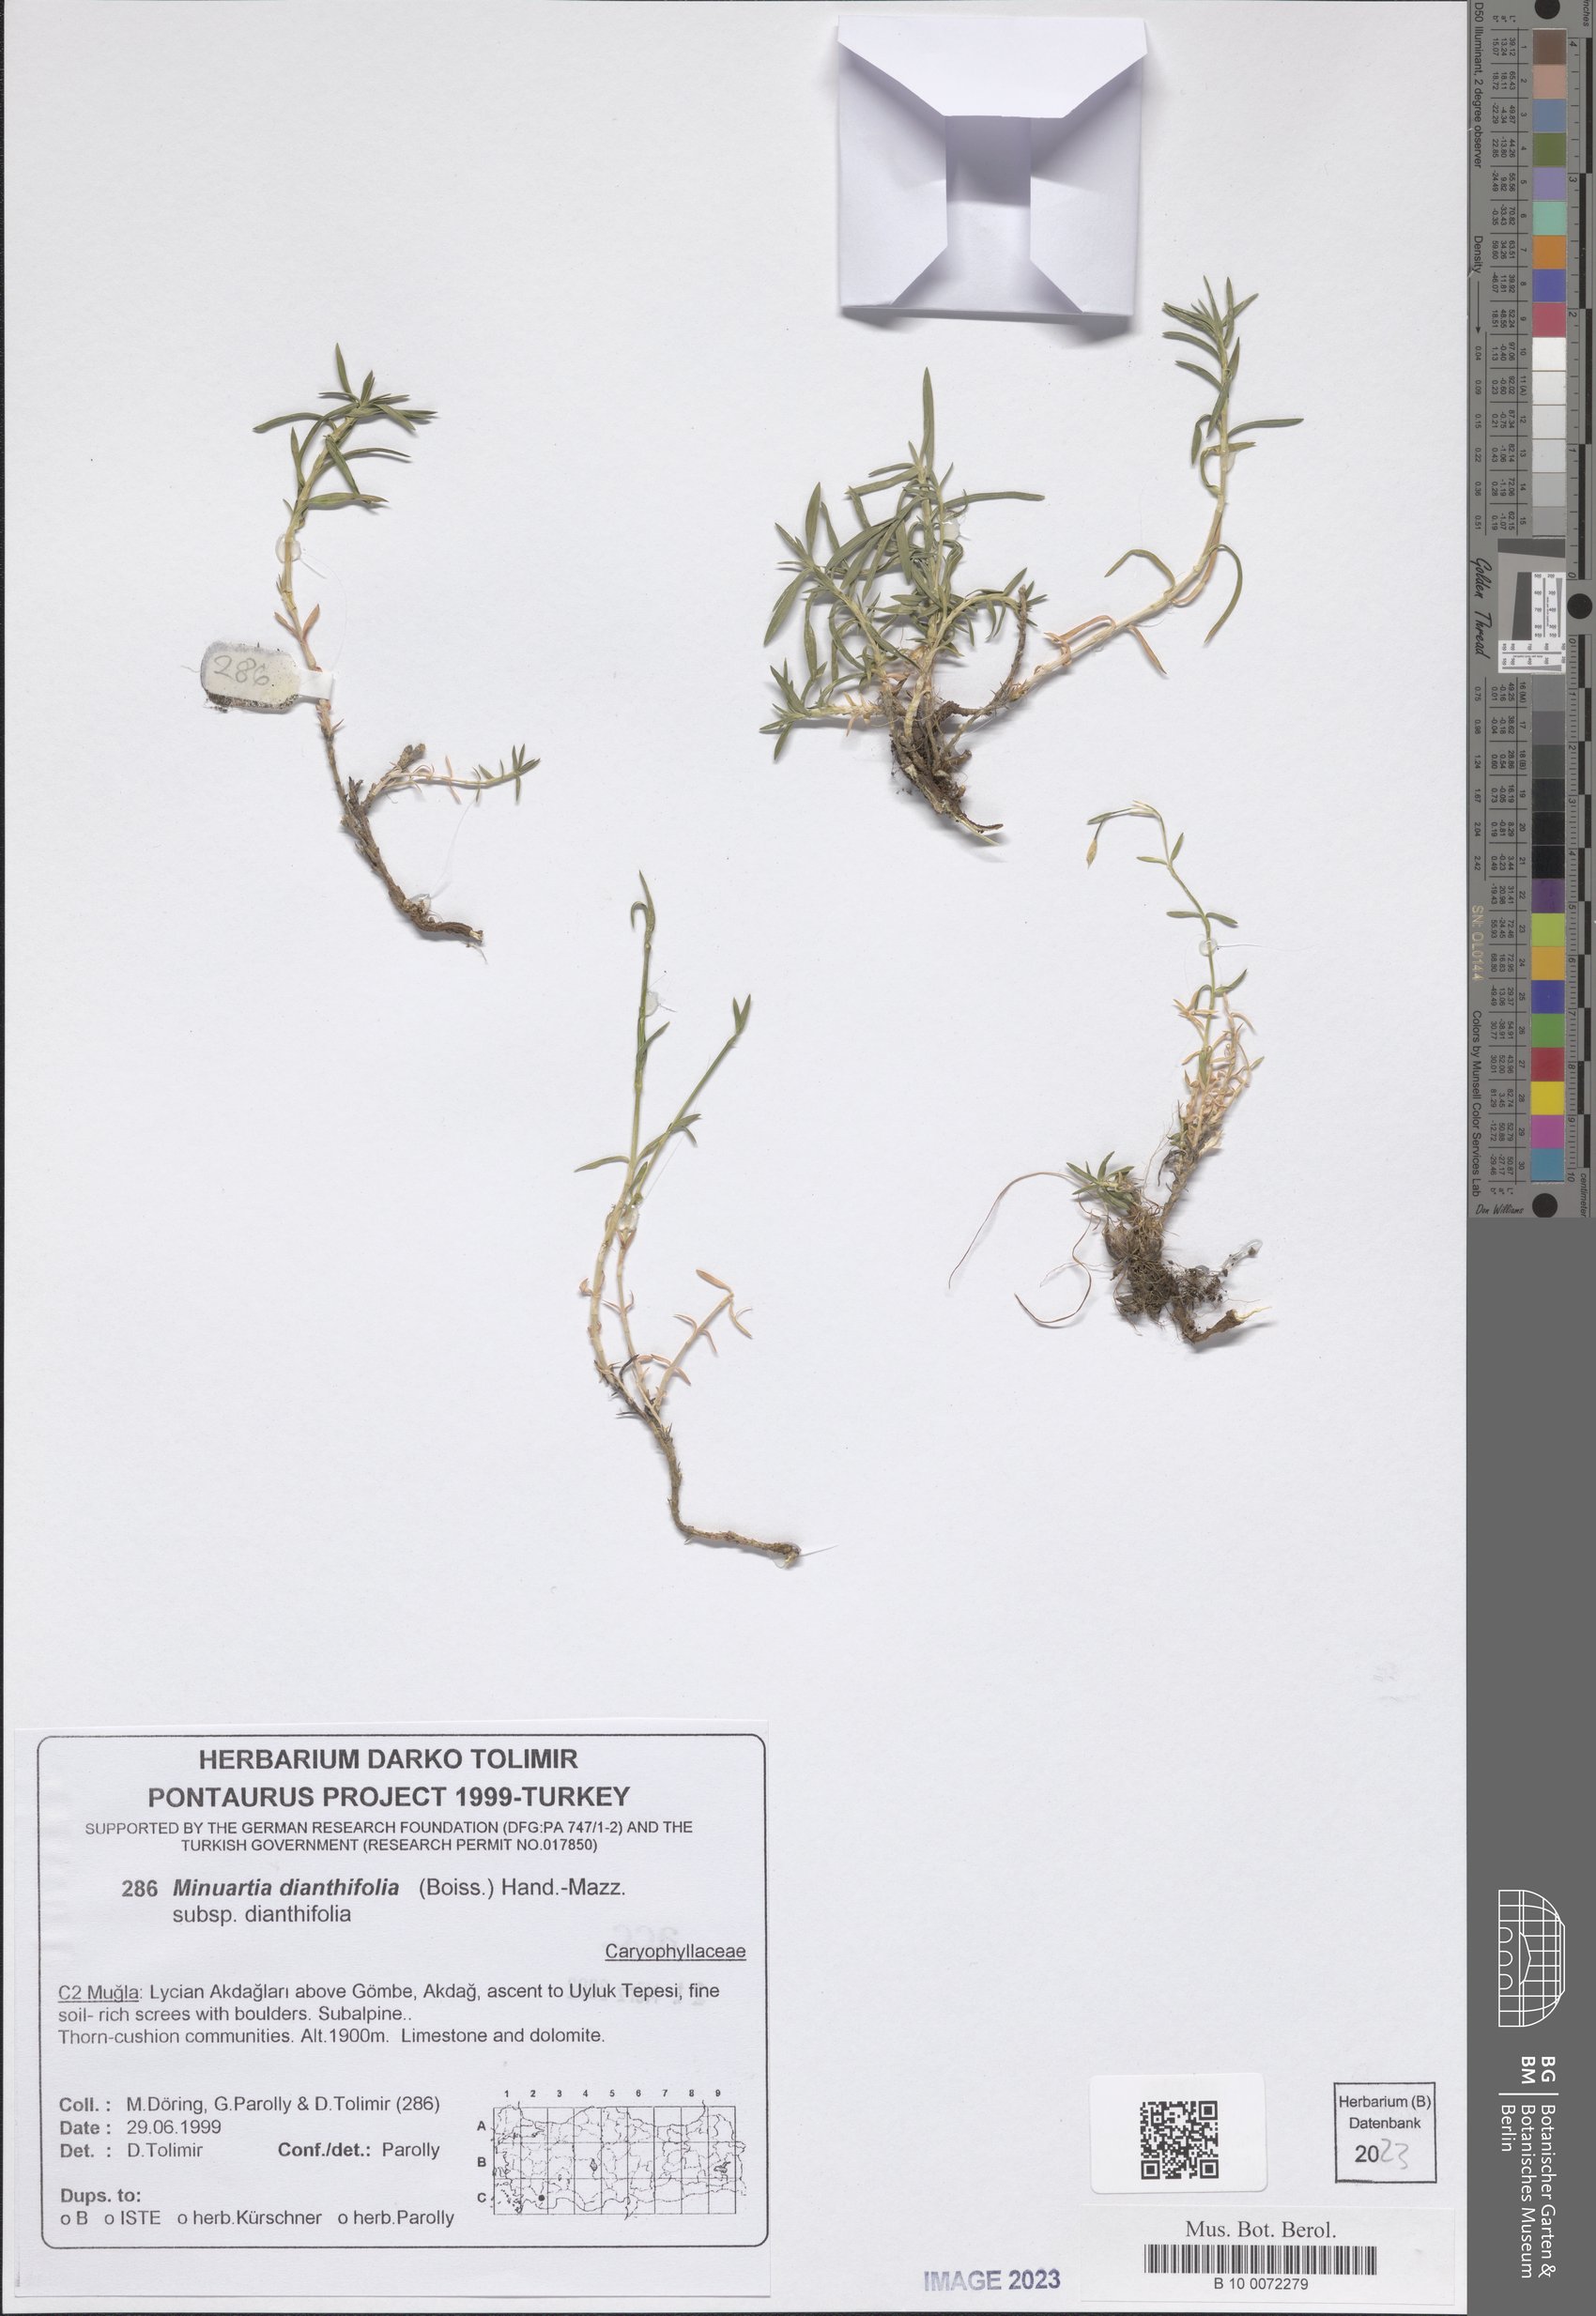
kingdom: Plantae
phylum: Tracheophyta
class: Magnoliopsida
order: Caryophyllales
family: Caryophyllaceae
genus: Minuartiella
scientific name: Minuartiella dianthifolia
